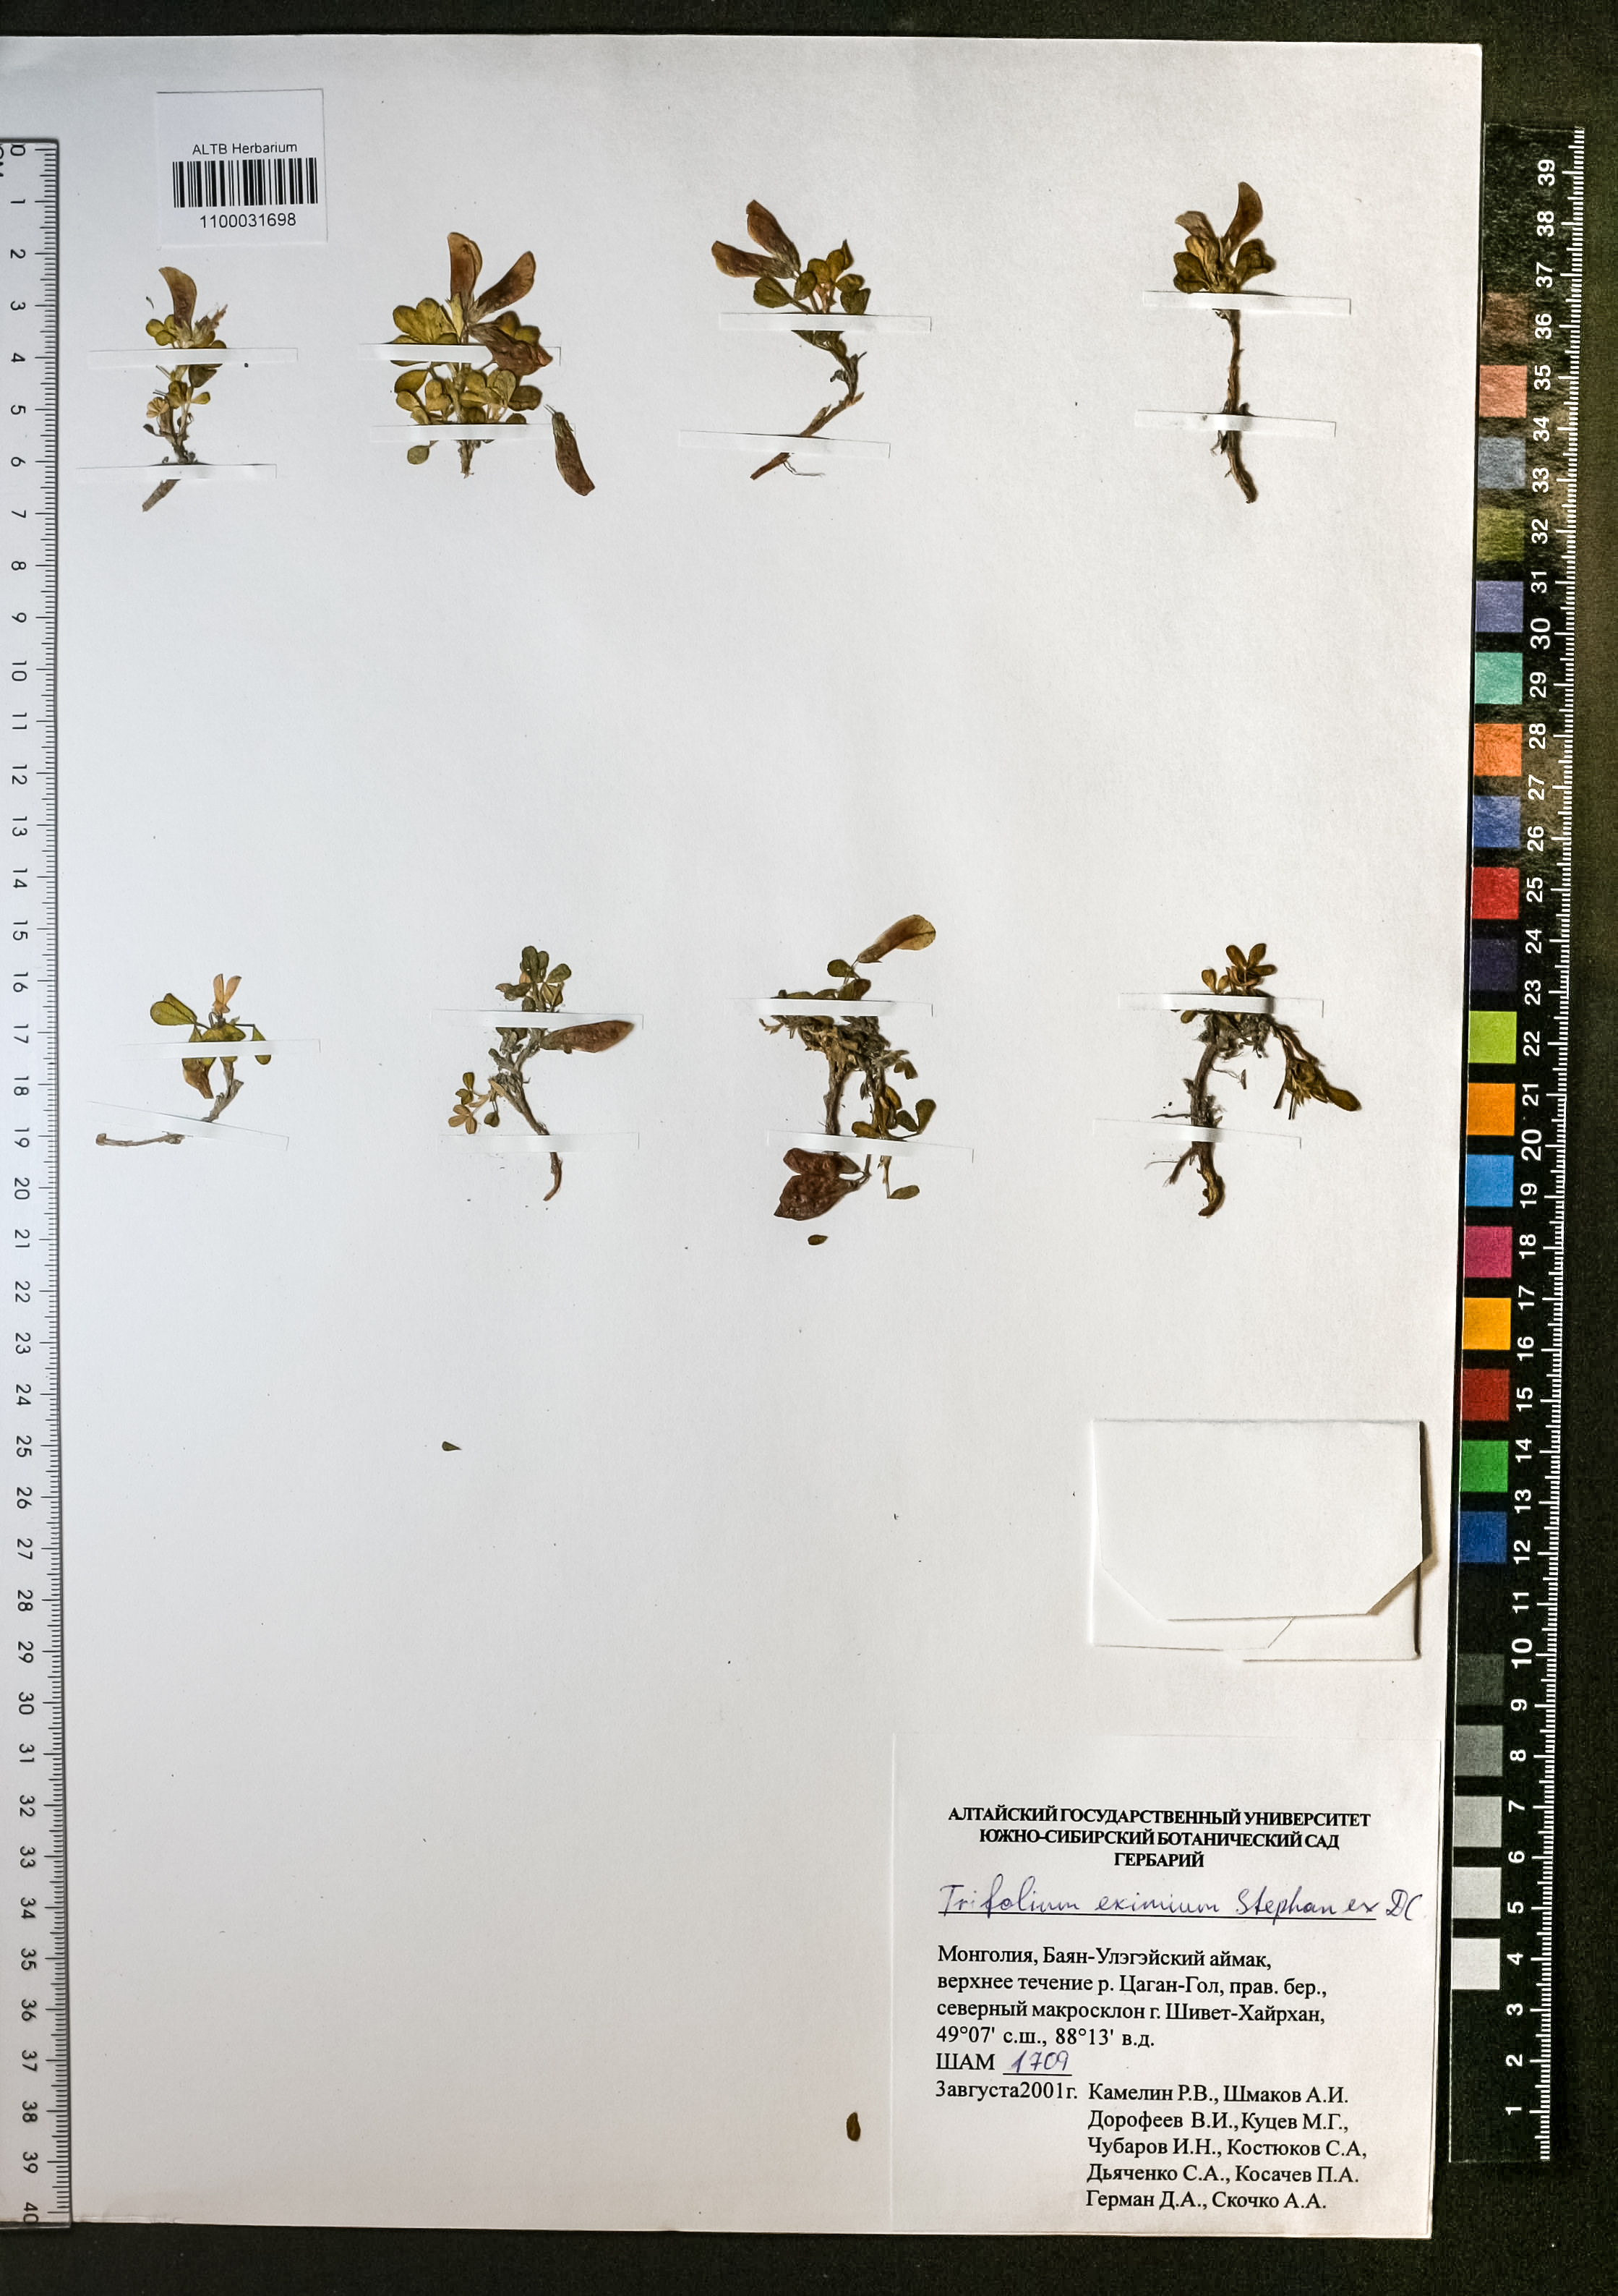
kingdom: Plantae
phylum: Tracheophyta
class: Magnoliopsida
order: Fabales
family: Fabaceae
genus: Trifolium
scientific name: Trifolium eximium
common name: Excellent clover
